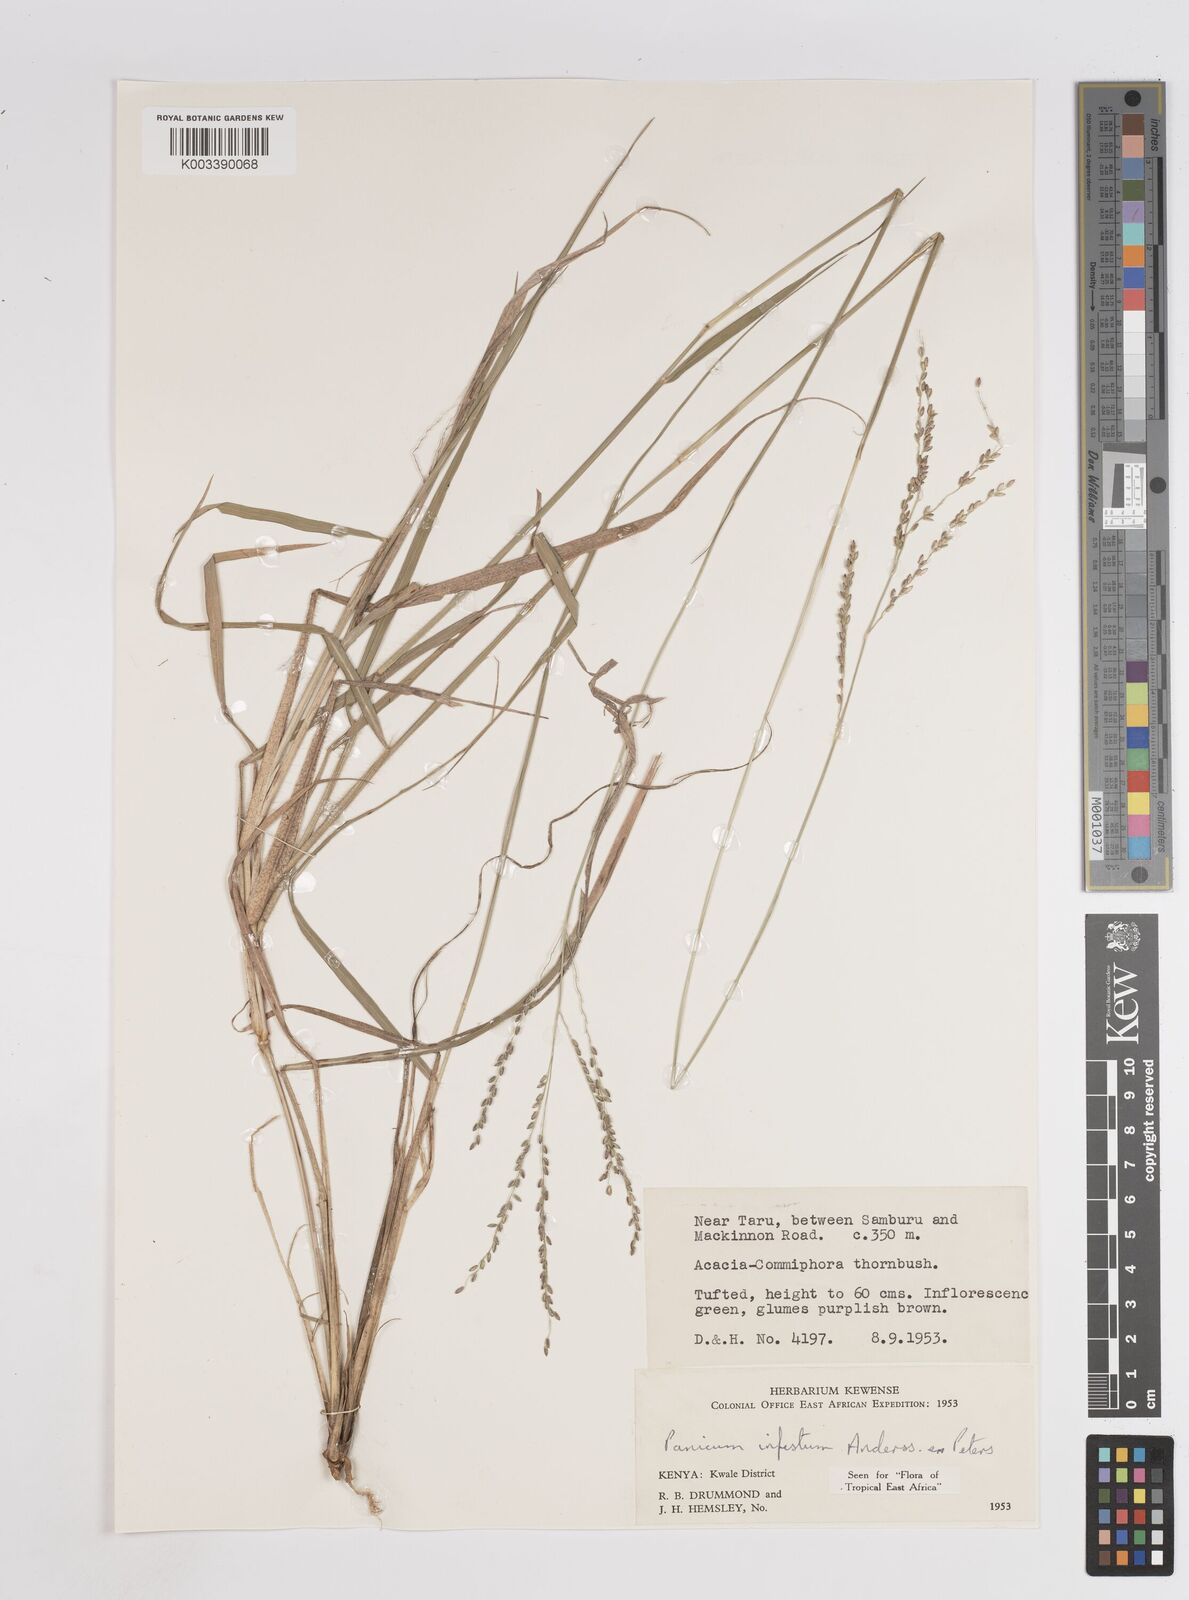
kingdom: Plantae
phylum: Tracheophyta
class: Liliopsida
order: Poales
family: Poaceae
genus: Megathyrsus
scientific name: Megathyrsus infestus
